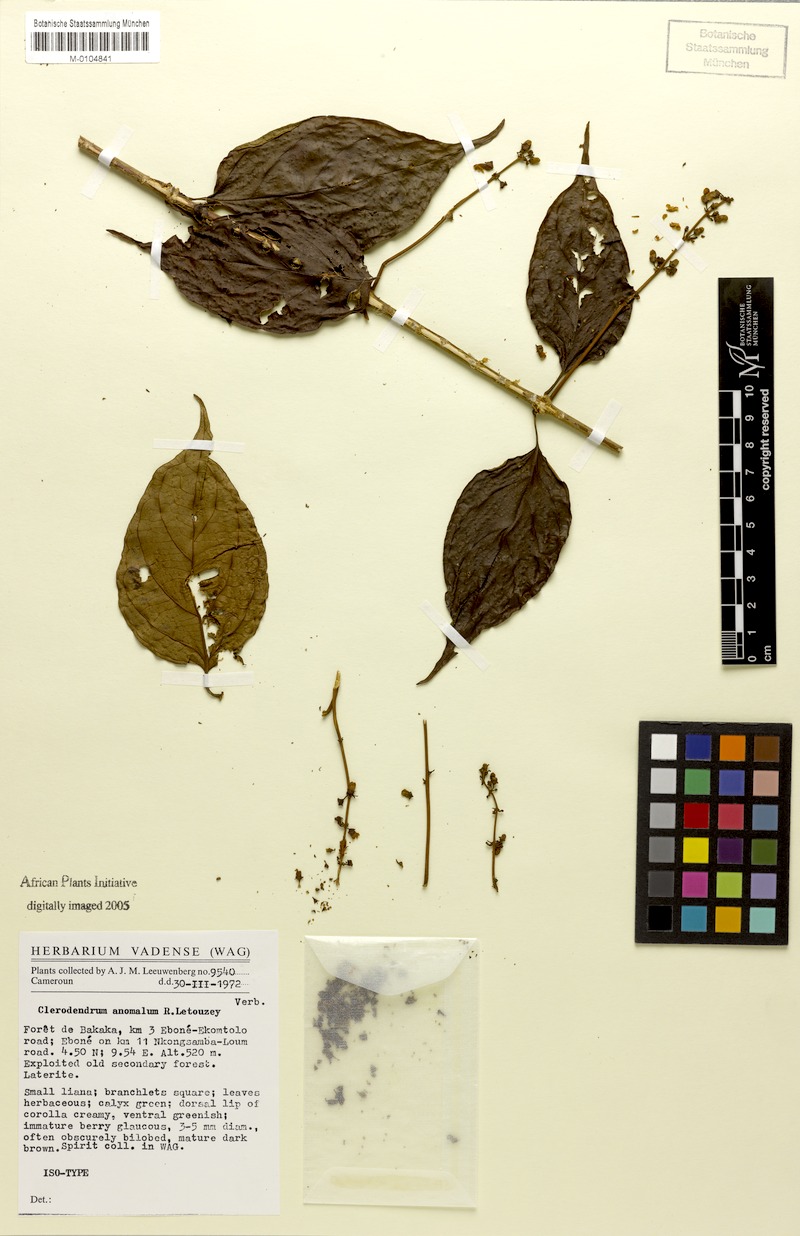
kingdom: Plantae
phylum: Tracheophyta
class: Magnoliopsida
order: Lamiales
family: Lamiaceae
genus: Clerodendrum
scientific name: Clerodendrum anomalum
